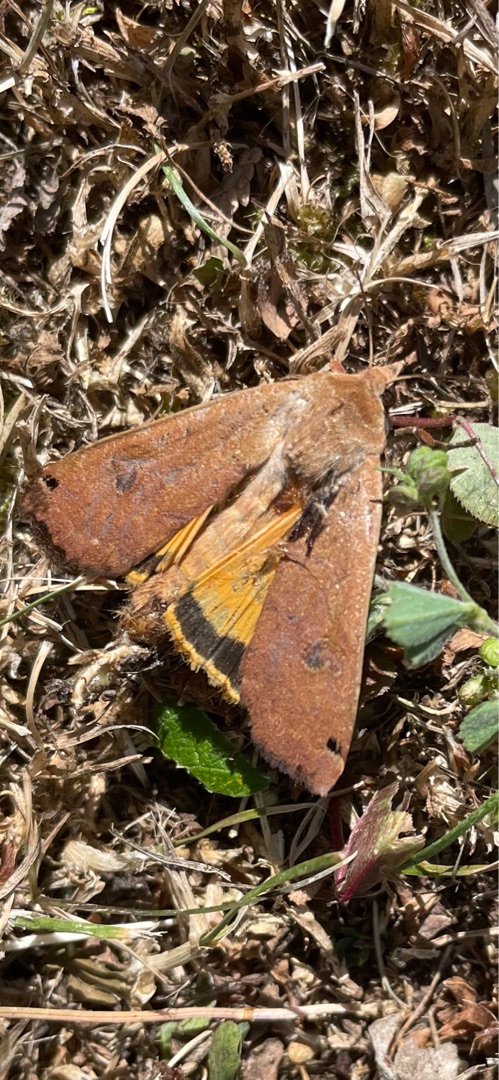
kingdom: Animalia
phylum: Arthropoda
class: Insecta
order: Lepidoptera
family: Noctuidae
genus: Noctua
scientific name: Noctua pronuba
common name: Stor smutugle
